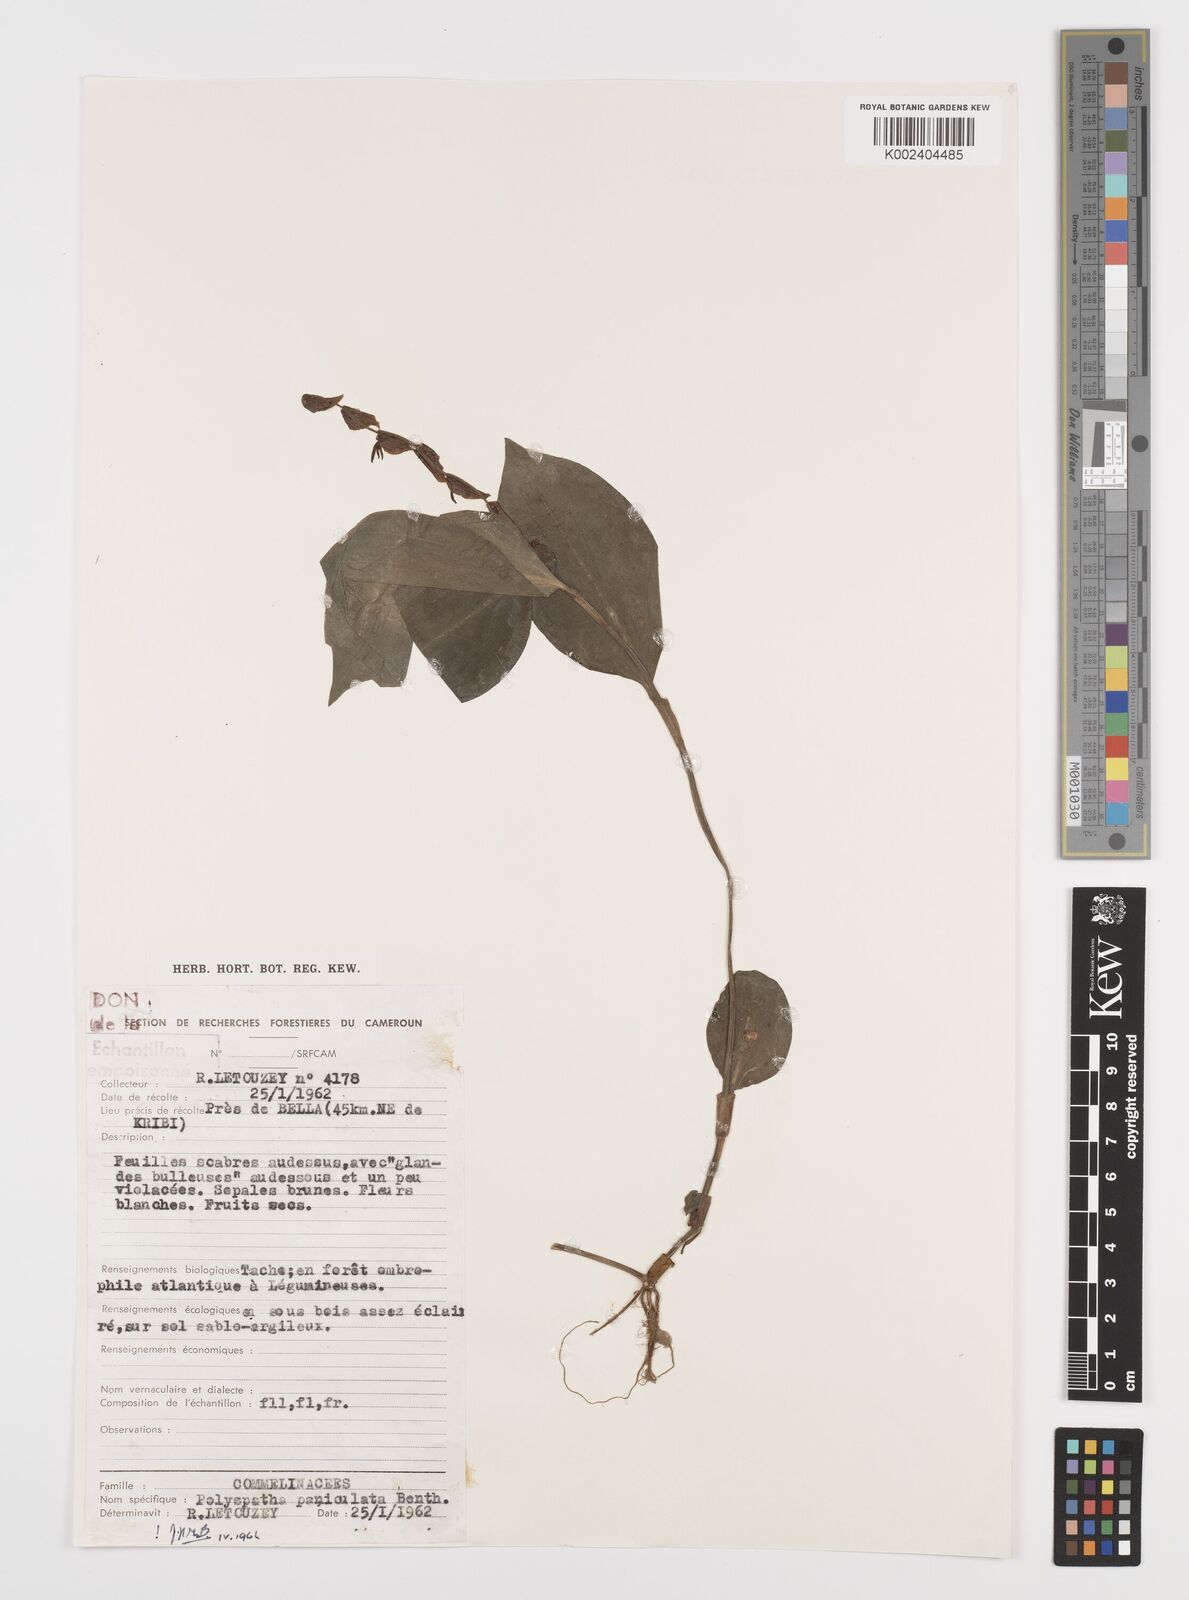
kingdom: Plantae
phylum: Tracheophyta
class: Liliopsida
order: Commelinales
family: Commelinaceae
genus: Polyspatha
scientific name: Polyspatha paniculata
